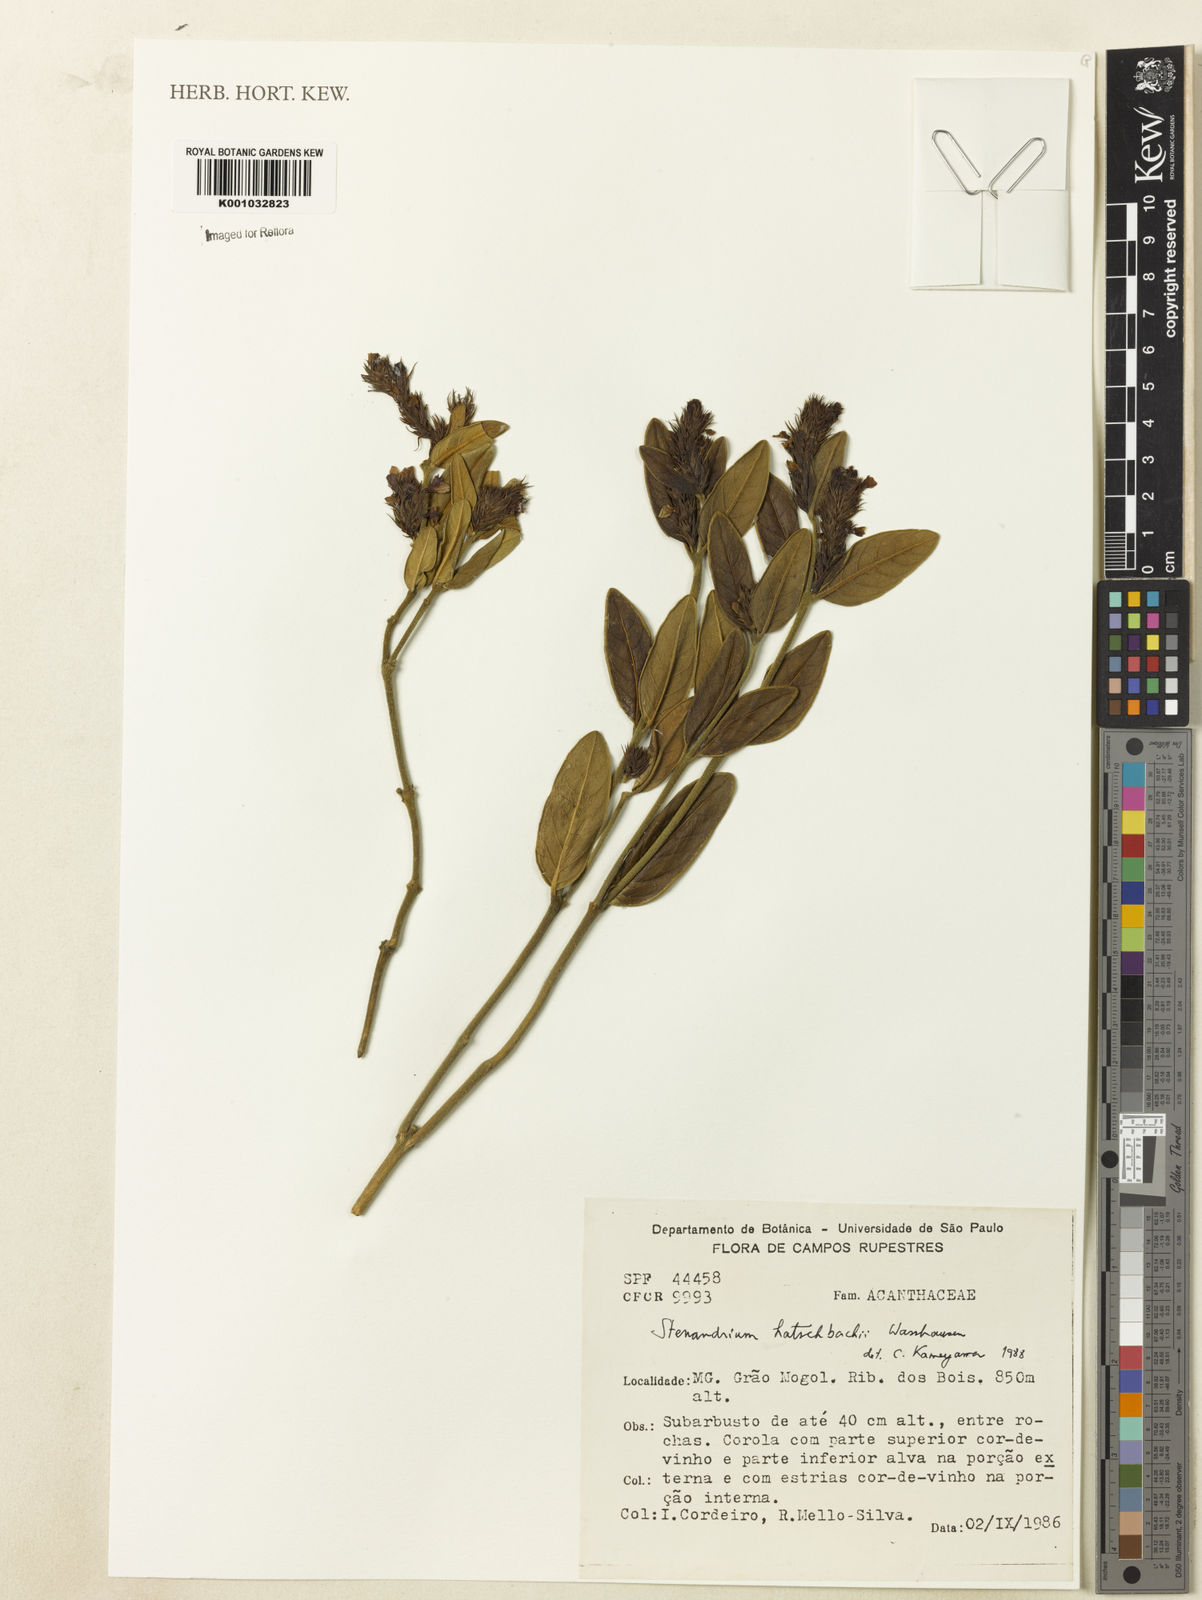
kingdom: Plantae
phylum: Tracheophyta
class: Magnoliopsida
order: Lamiales
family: Acanthaceae
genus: Stenandrium
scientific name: Stenandrium hatschbachii
